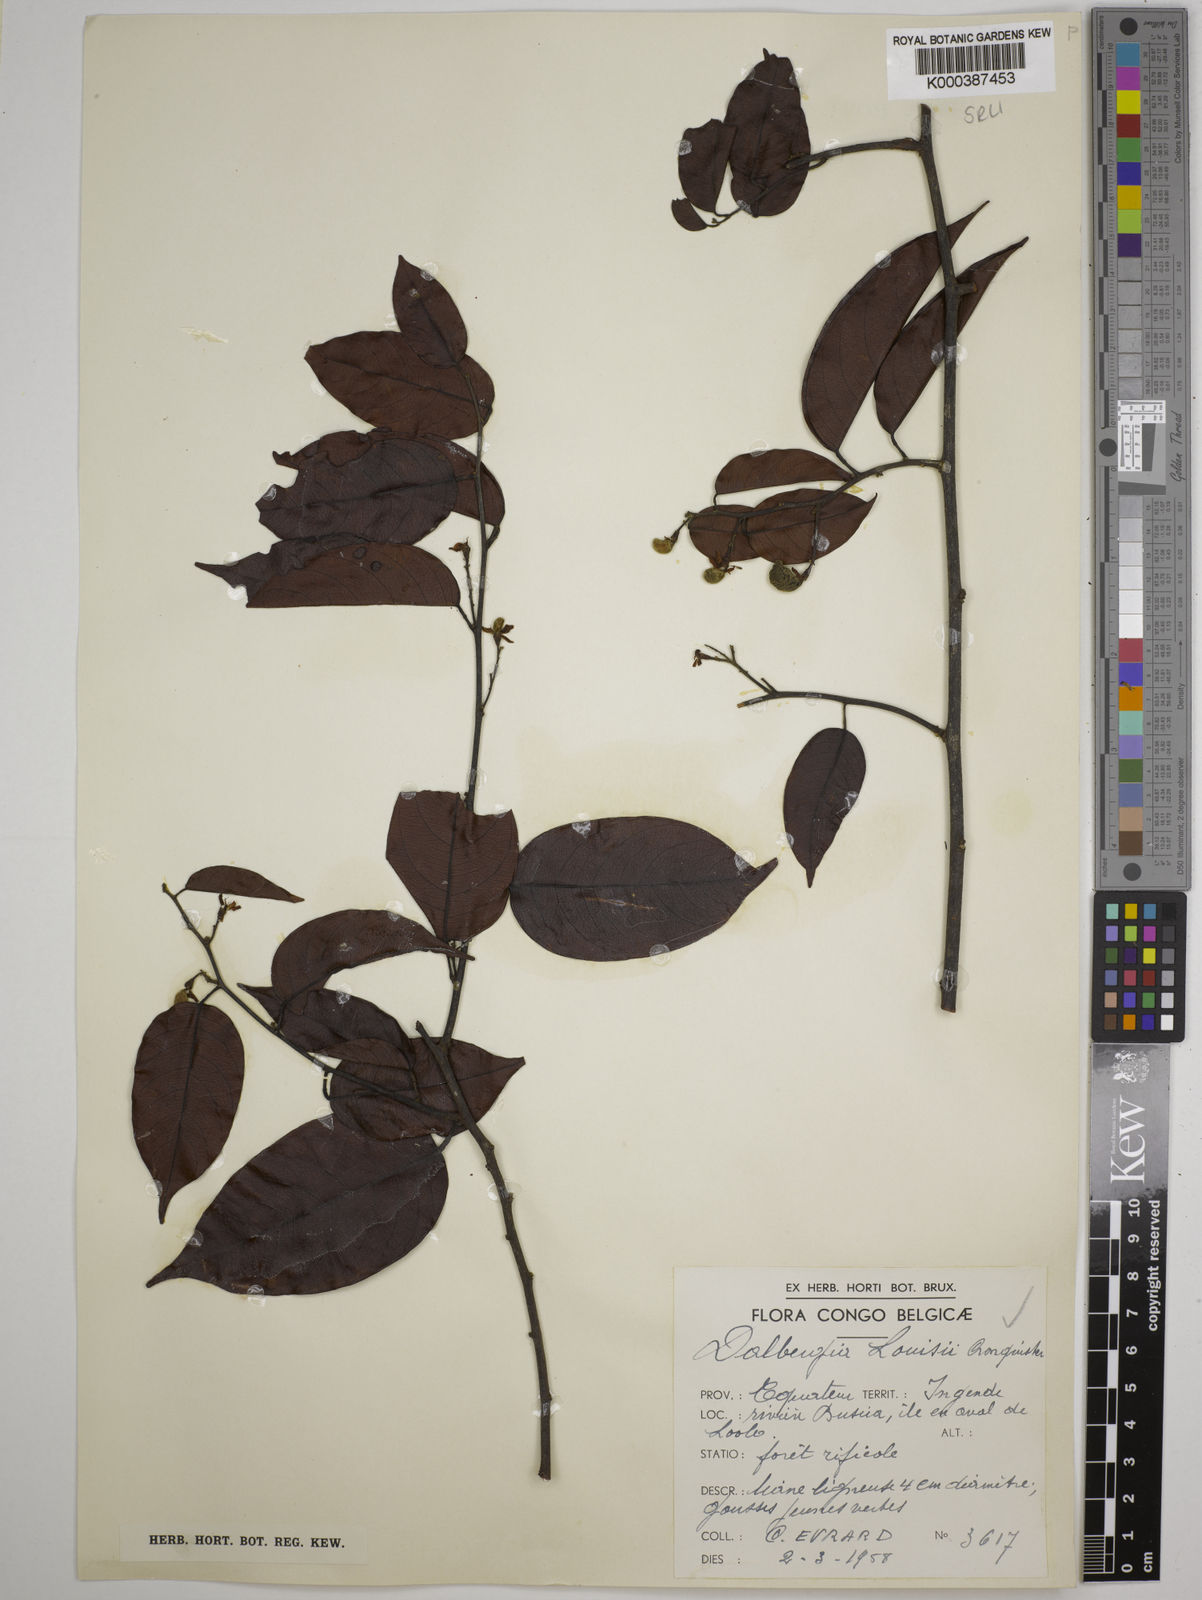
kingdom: Plantae
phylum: Tracheophyta
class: Magnoliopsida
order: Fabales
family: Fabaceae
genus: Dalbergia
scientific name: Dalbergia louisii
